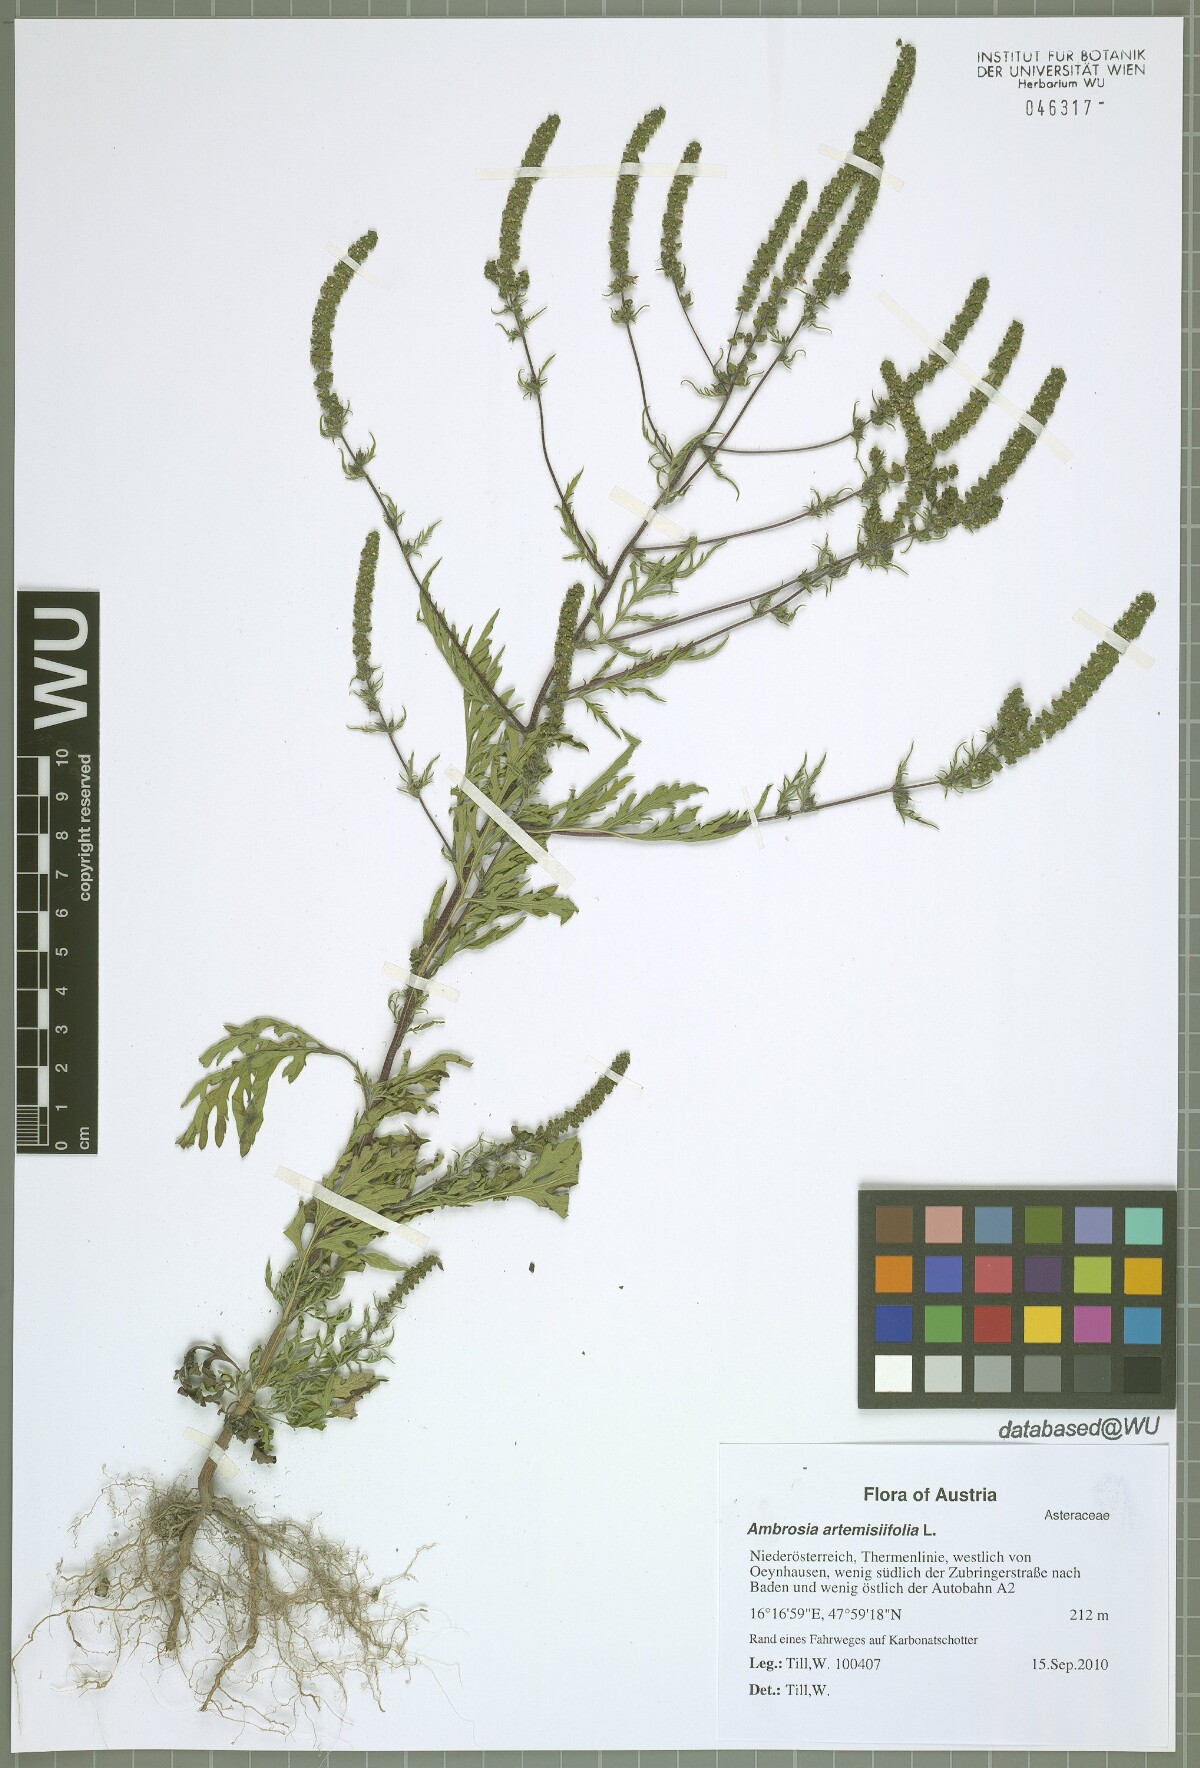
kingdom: Plantae
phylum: Tracheophyta
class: Magnoliopsida
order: Asterales
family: Asteraceae
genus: Ambrosia
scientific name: Ambrosia artemisiifolia
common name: Annual ragweed
